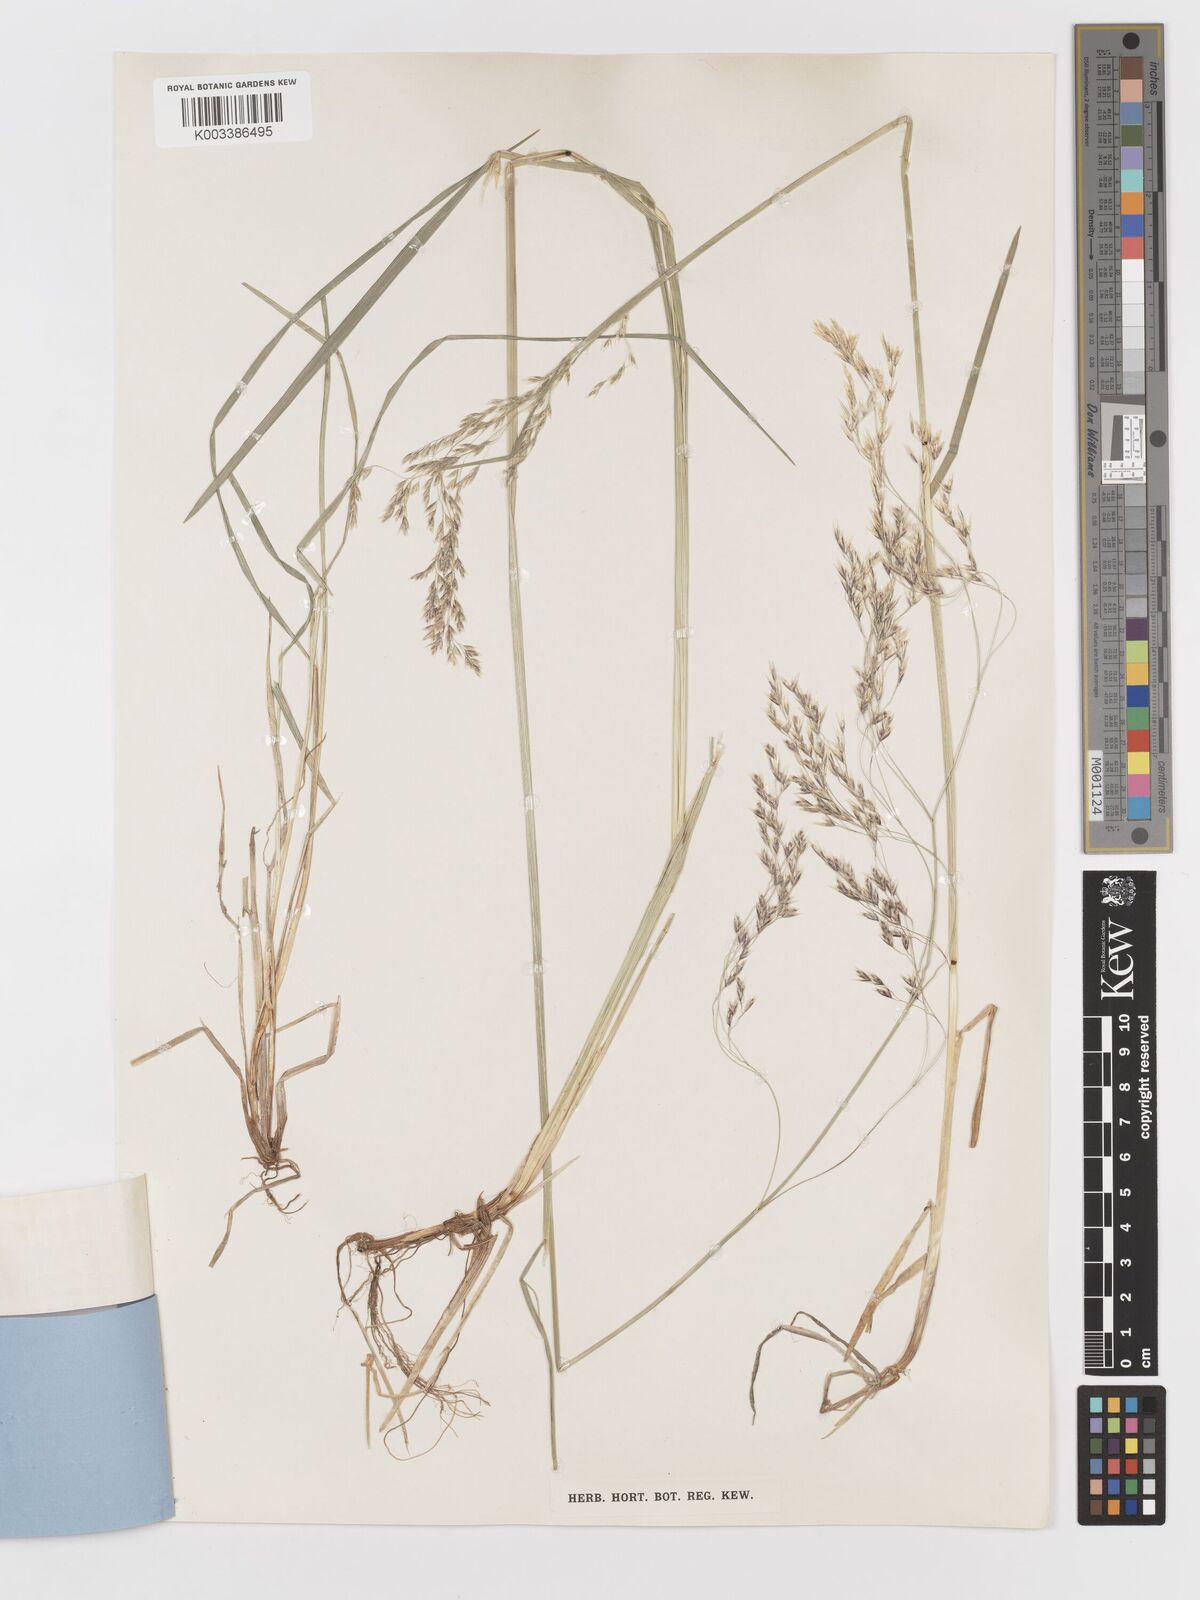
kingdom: Plantae
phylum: Tracheophyta
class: Liliopsida
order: Poales
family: Poaceae
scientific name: Poaceae
